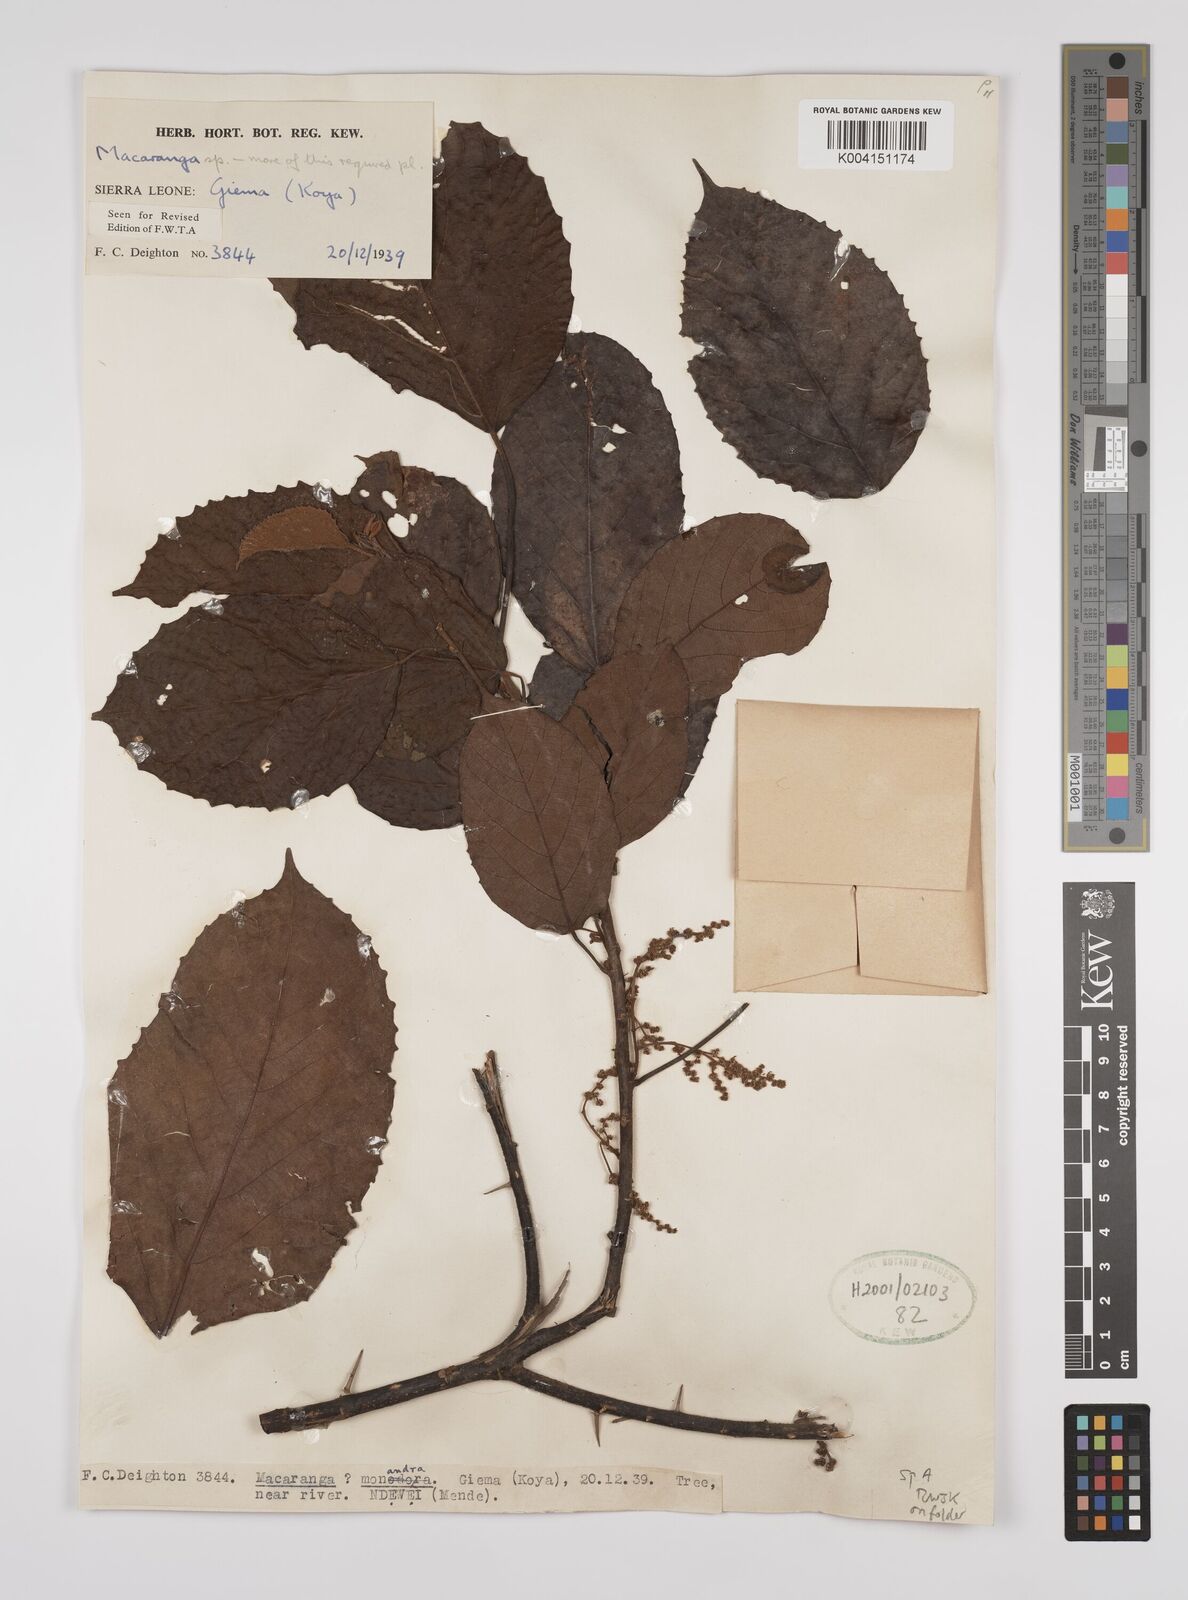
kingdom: Plantae
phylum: Tracheophyta
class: Magnoliopsida
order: Malpighiales
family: Euphorbiaceae
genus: Macaranga
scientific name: Macaranga
